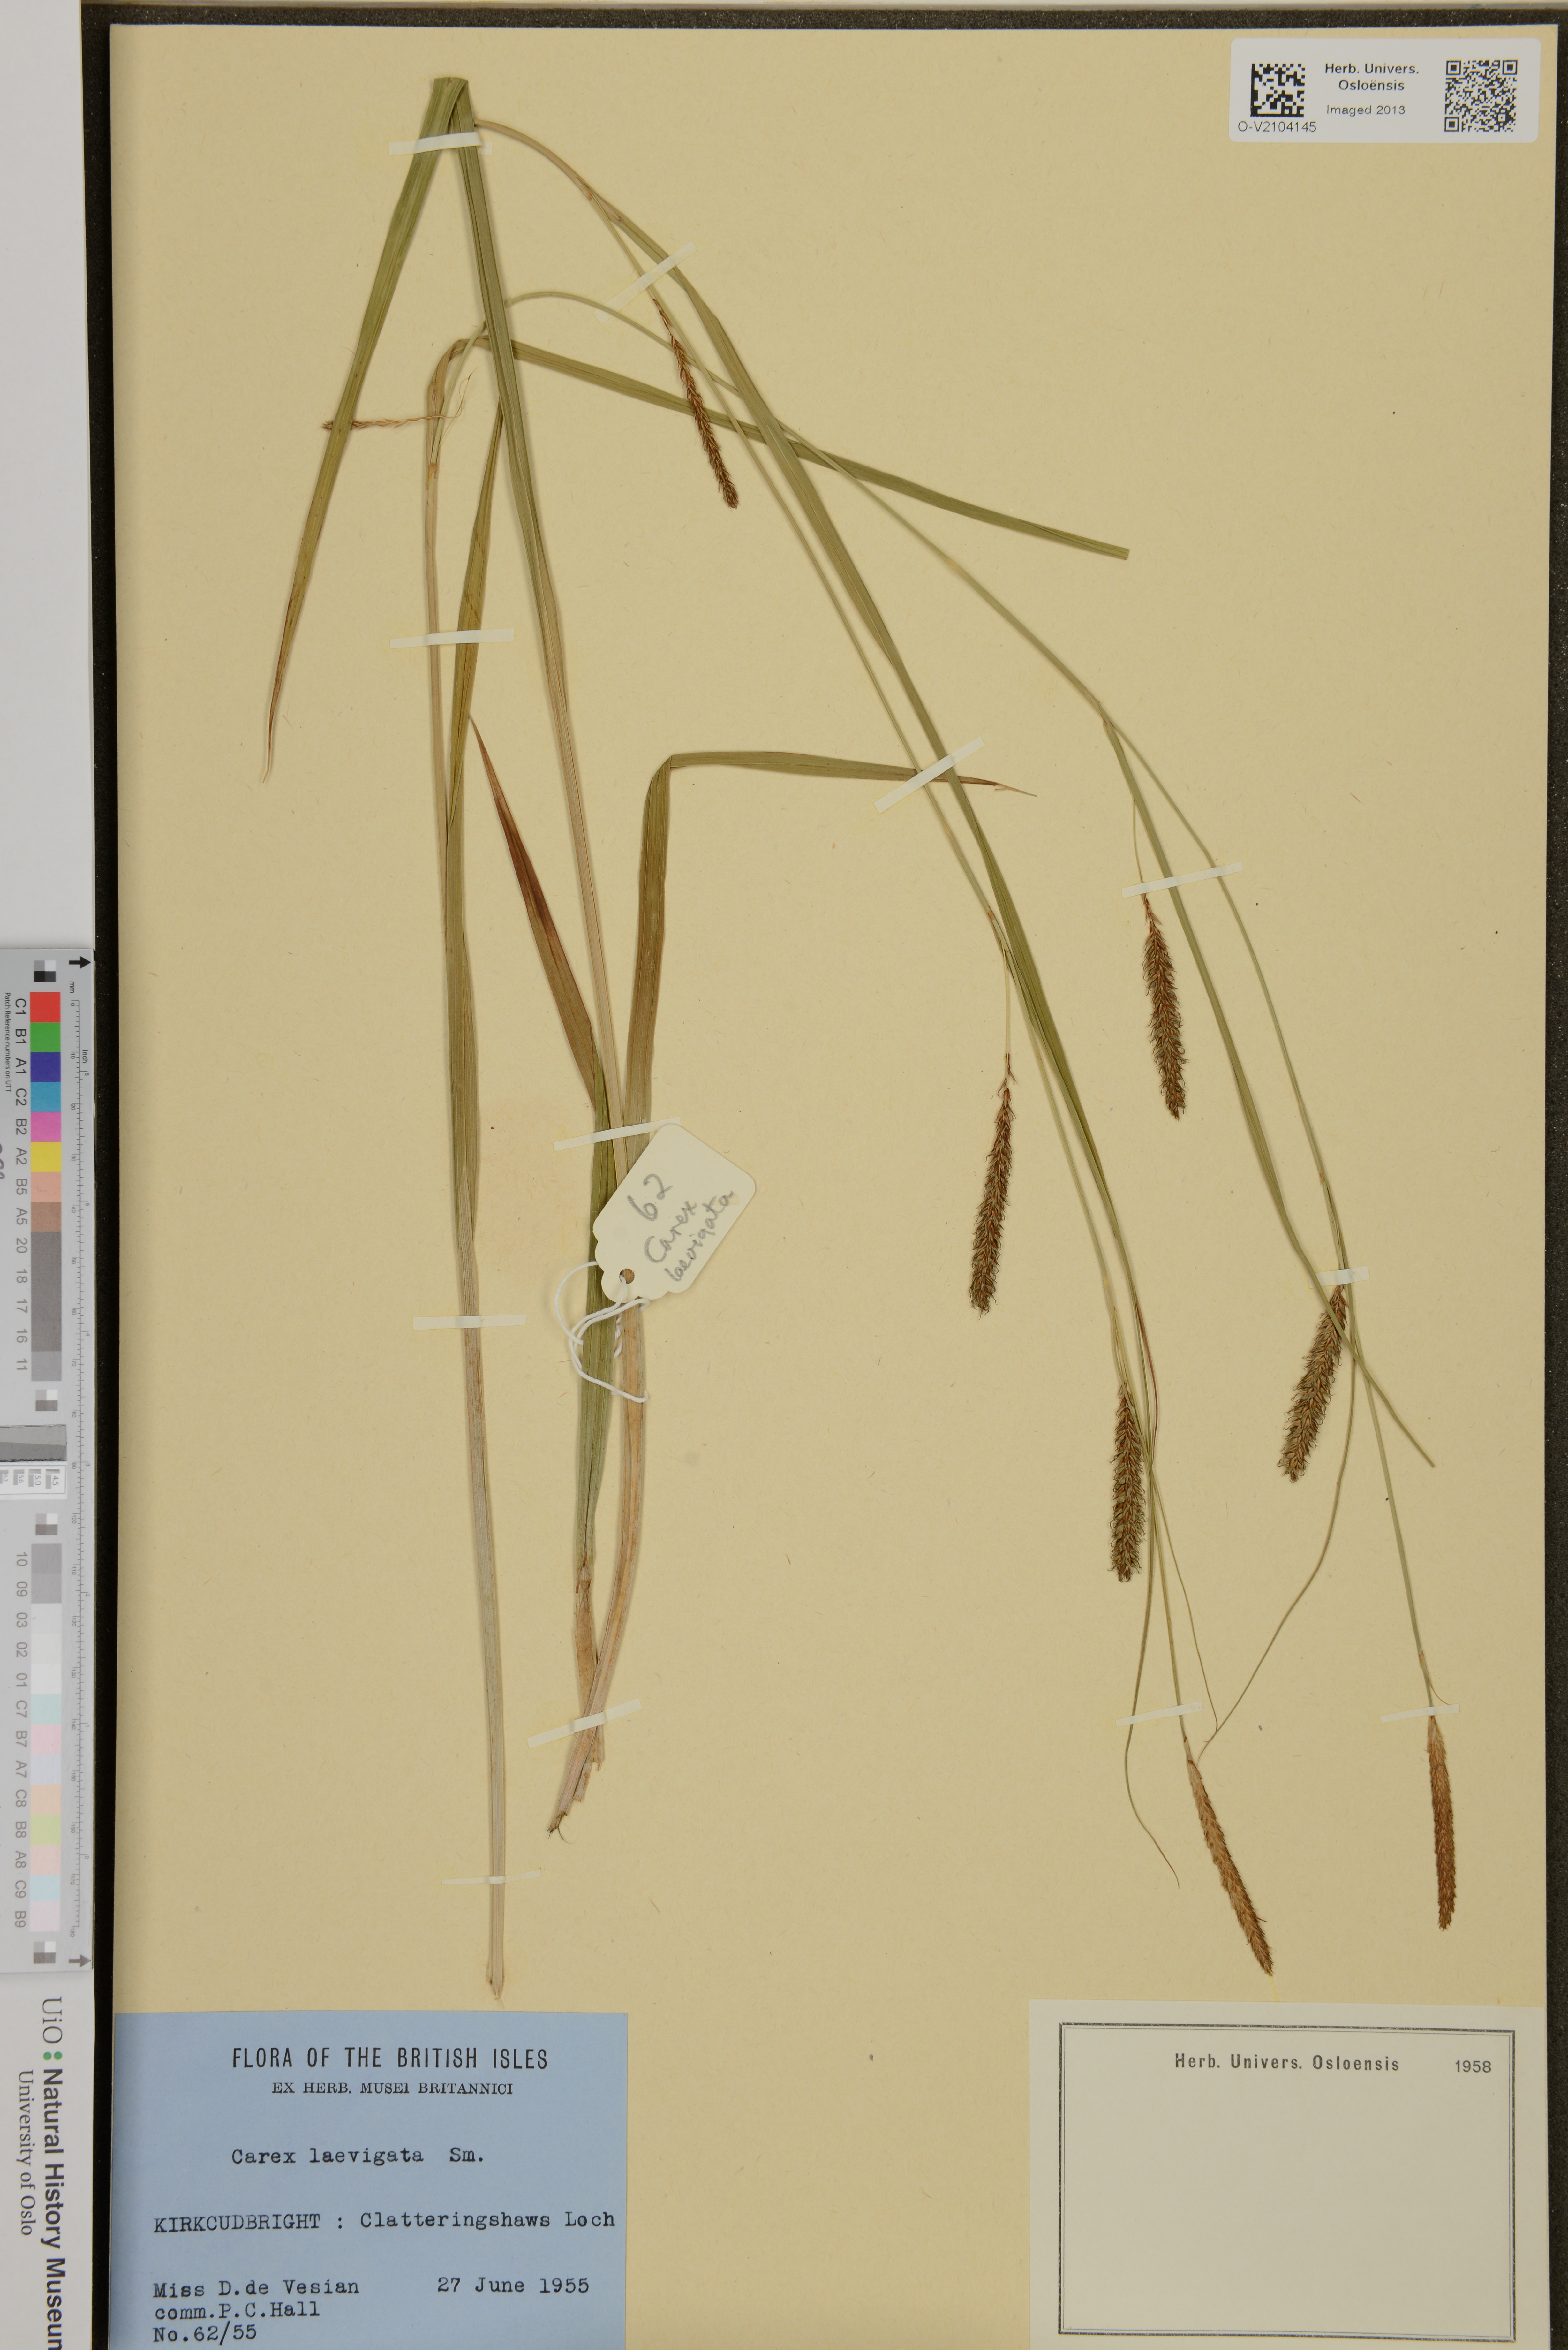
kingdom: Plantae
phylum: Tracheophyta
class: Liliopsida
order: Poales
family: Cyperaceae
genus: Carex
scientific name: Carex laevigata
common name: Smooth-stalked sedge
